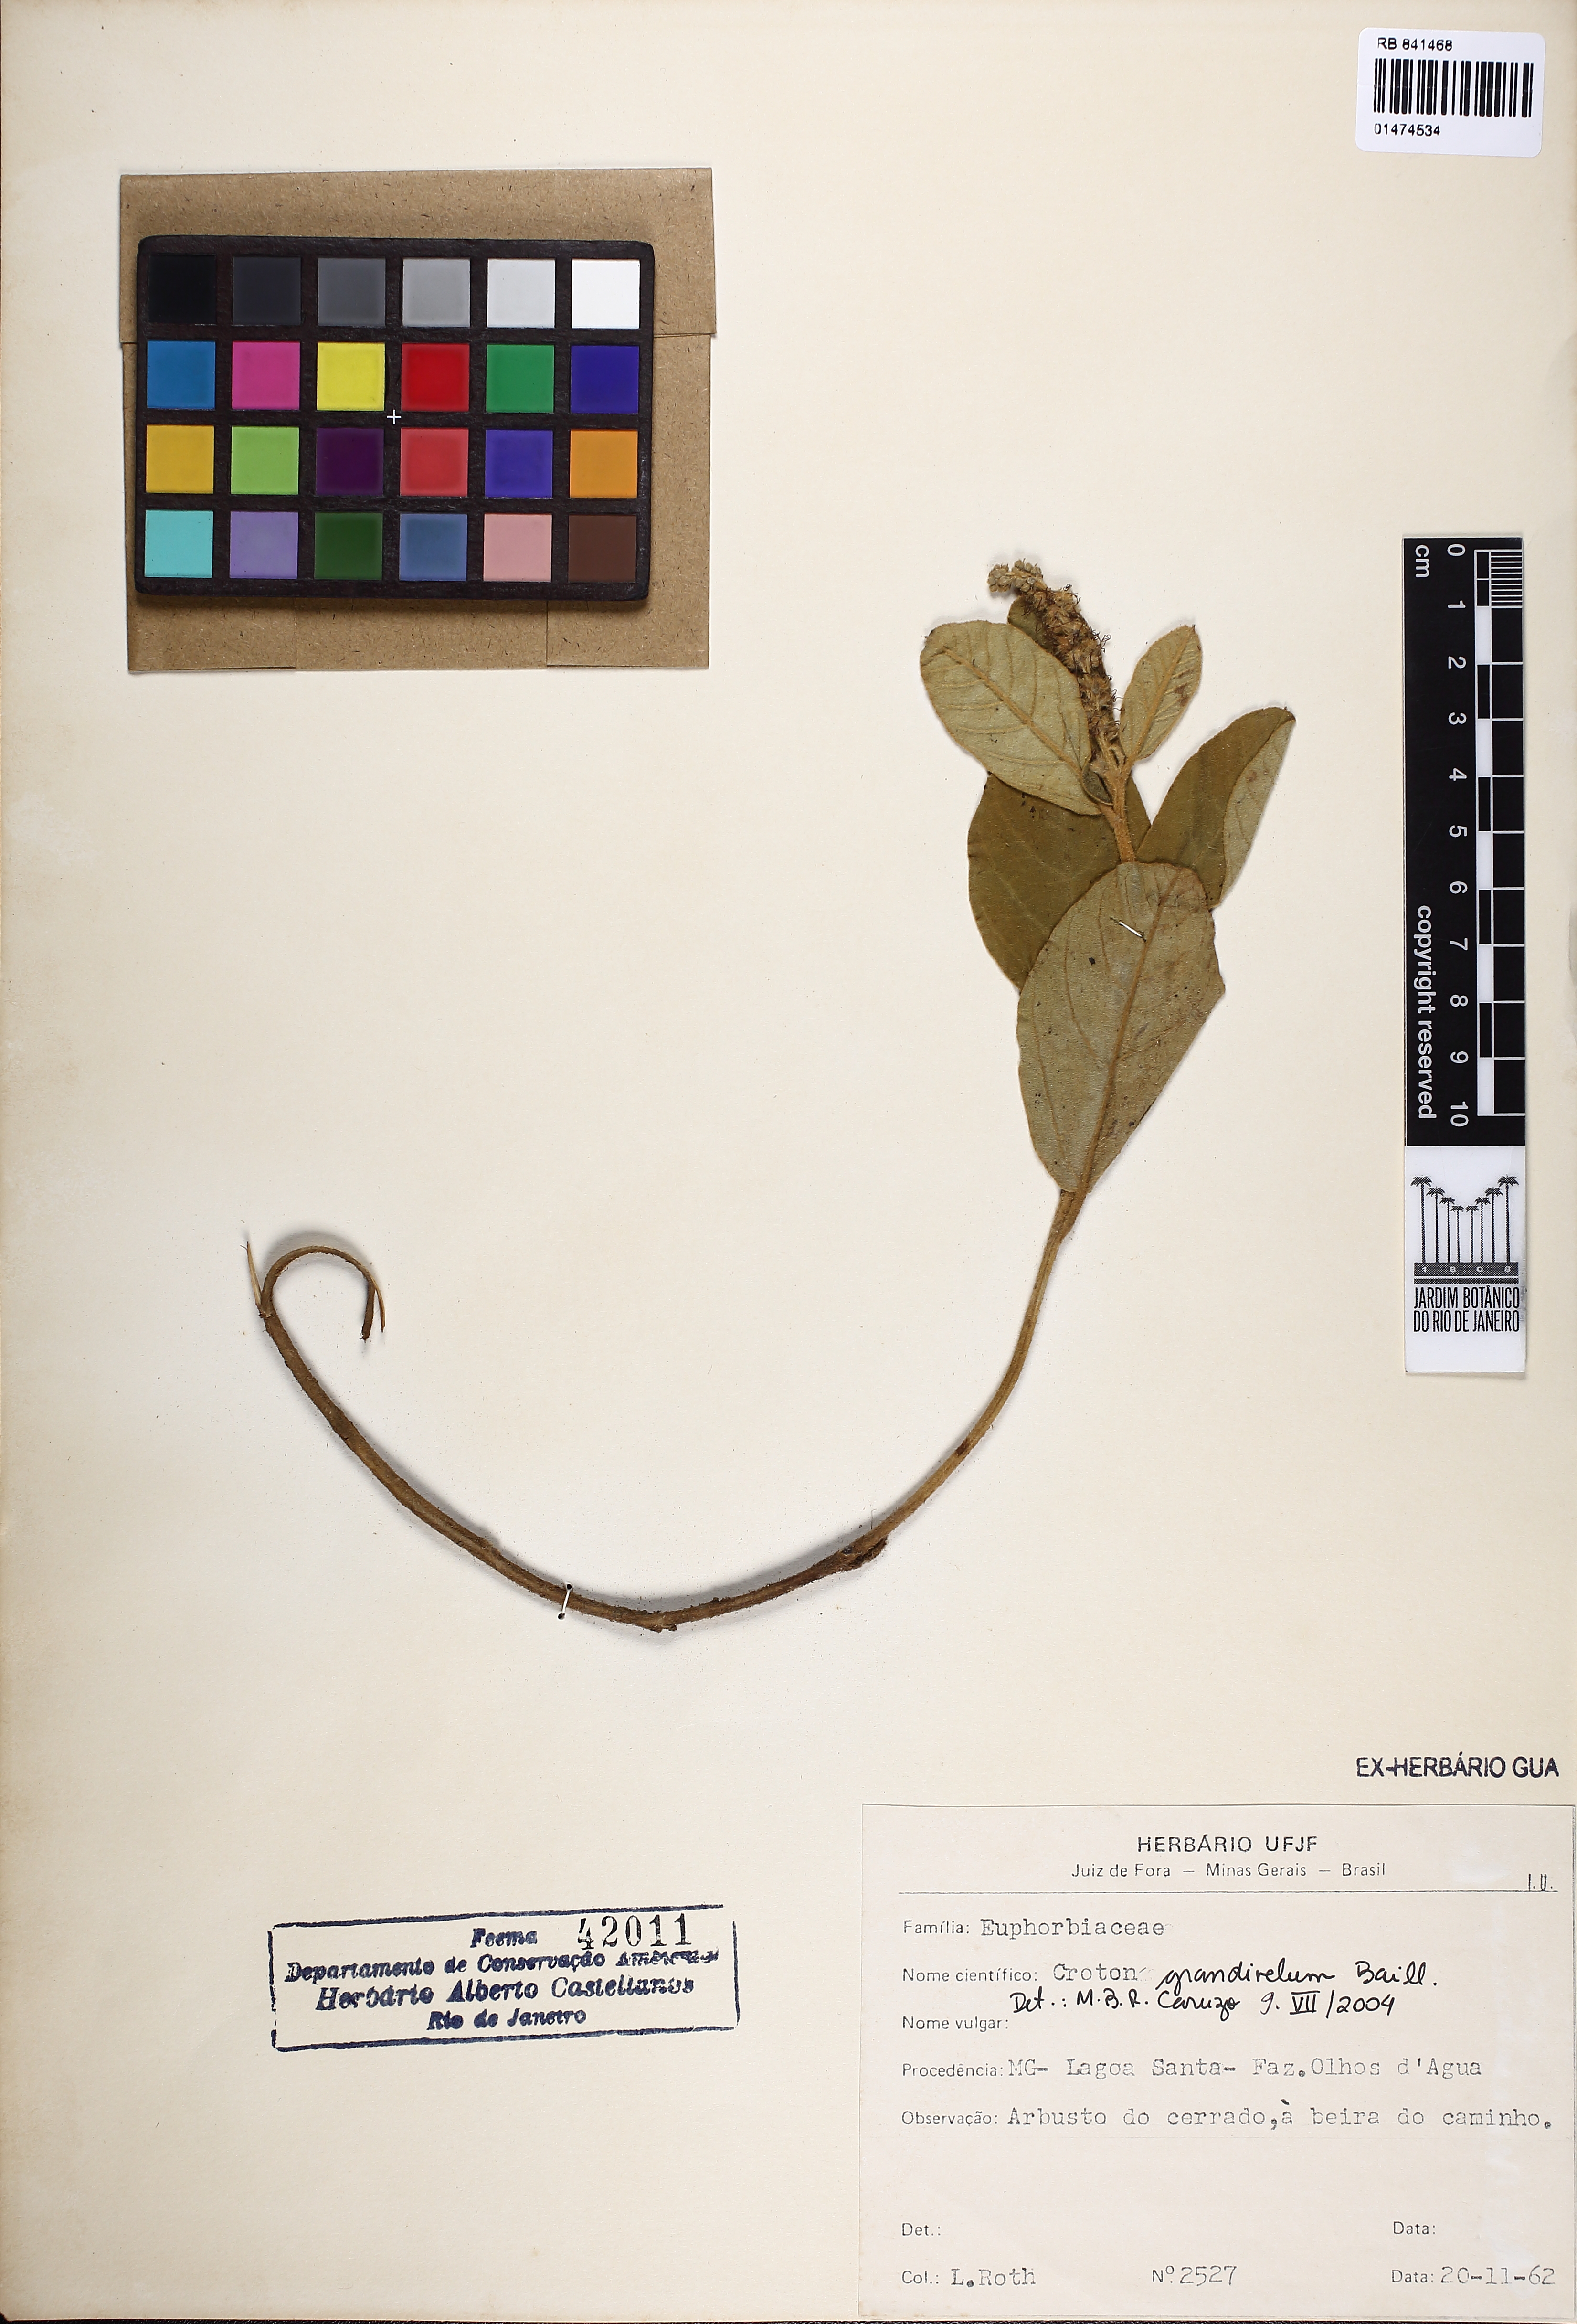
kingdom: Plantae
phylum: Tracheophyta
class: Magnoliopsida
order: Malpighiales
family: Euphorbiaceae
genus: Croton
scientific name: Croton grandivelum
